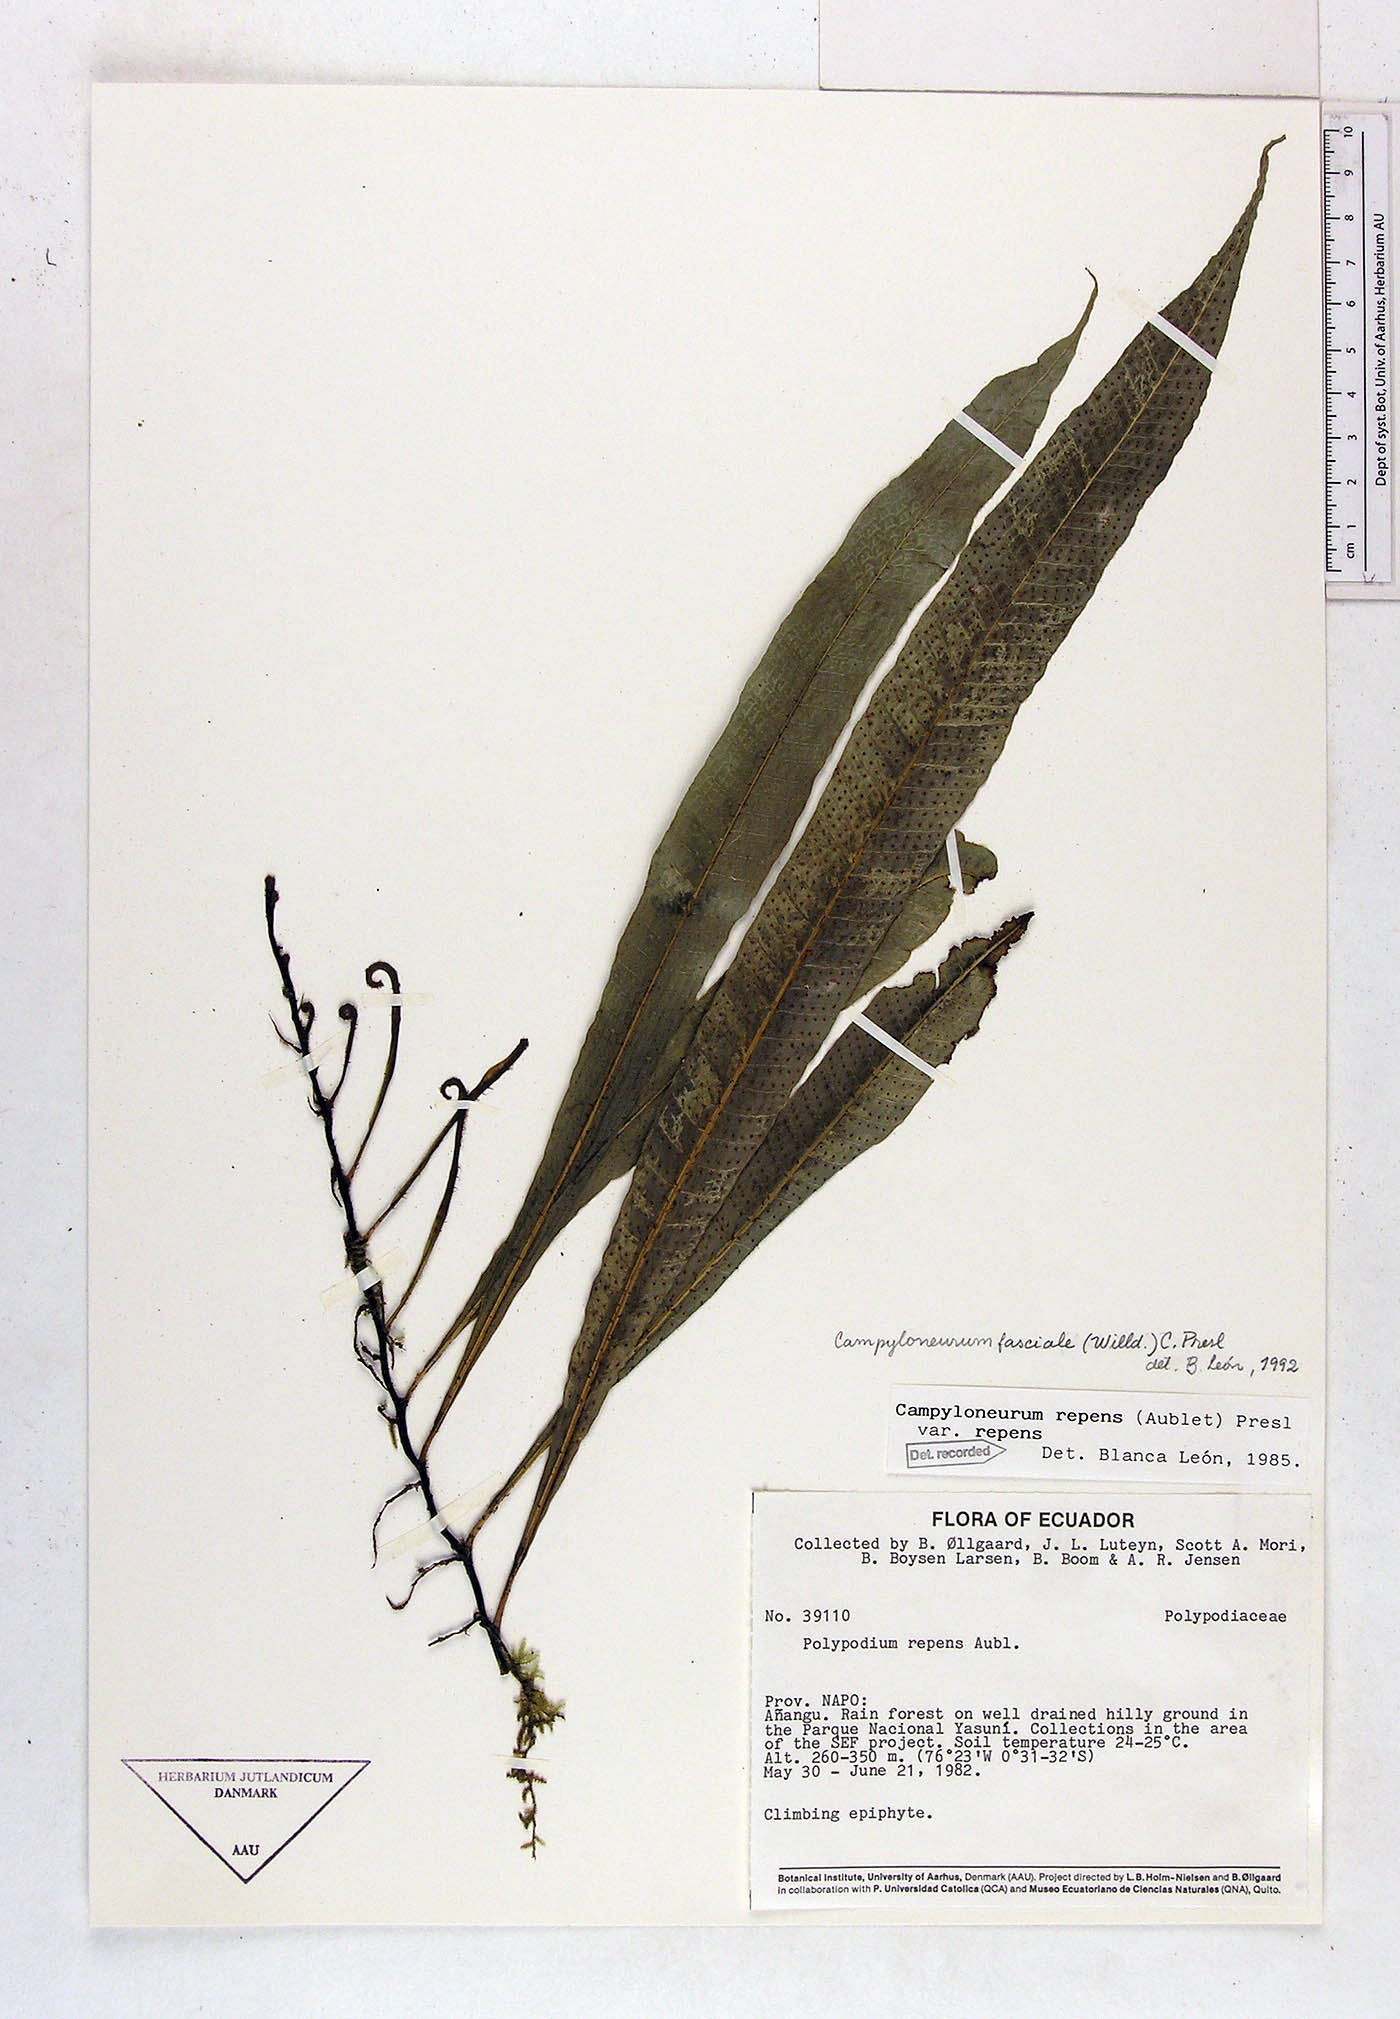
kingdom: Plantae
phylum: Tracheophyta
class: Polypodiopsida
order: Polypodiales
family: Polypodiaceae
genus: Campyloneurum
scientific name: Campyloneurum repens
